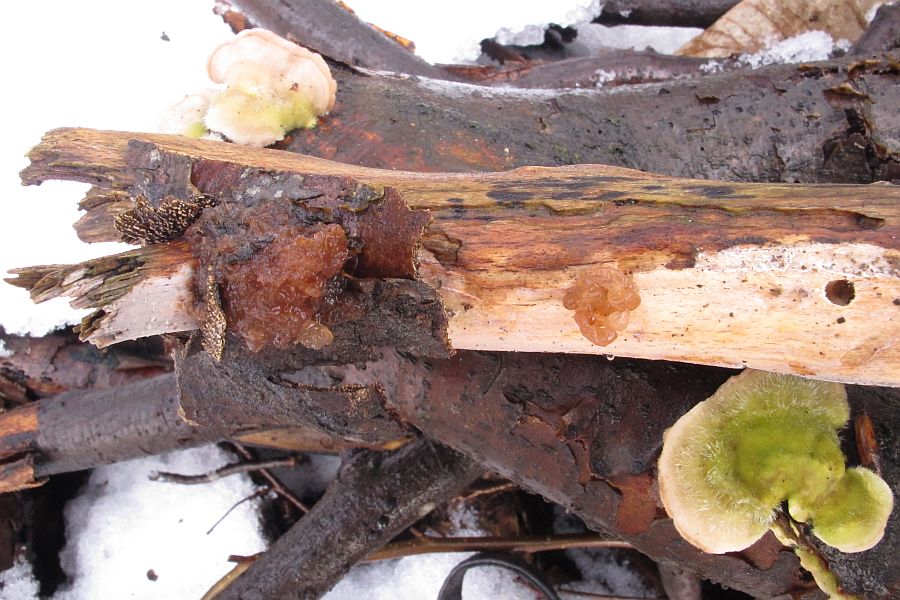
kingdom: Fungi
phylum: Basidiomycota
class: Tremellomycetes
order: Tremellales
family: Tremellaceae
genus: Phaeotremella
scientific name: Phaeotremella frondosa
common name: kæmpe-bævresvamp
